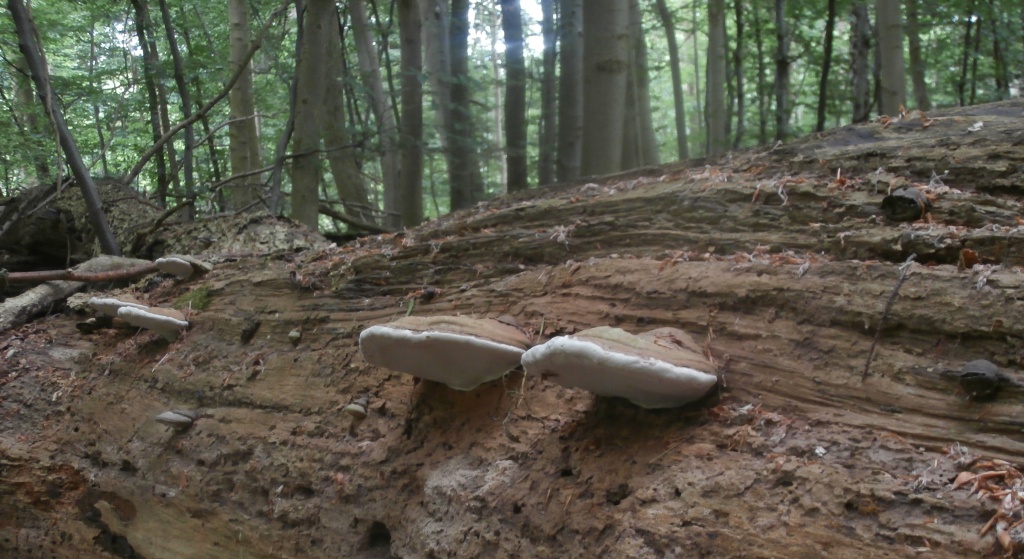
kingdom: Fungi
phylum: Basidiomycota
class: Agaricomycetes
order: Polyporales
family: Polyporaceae
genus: Ganoderma
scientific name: Ganoderma applanatum
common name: flad lakporesvamp
